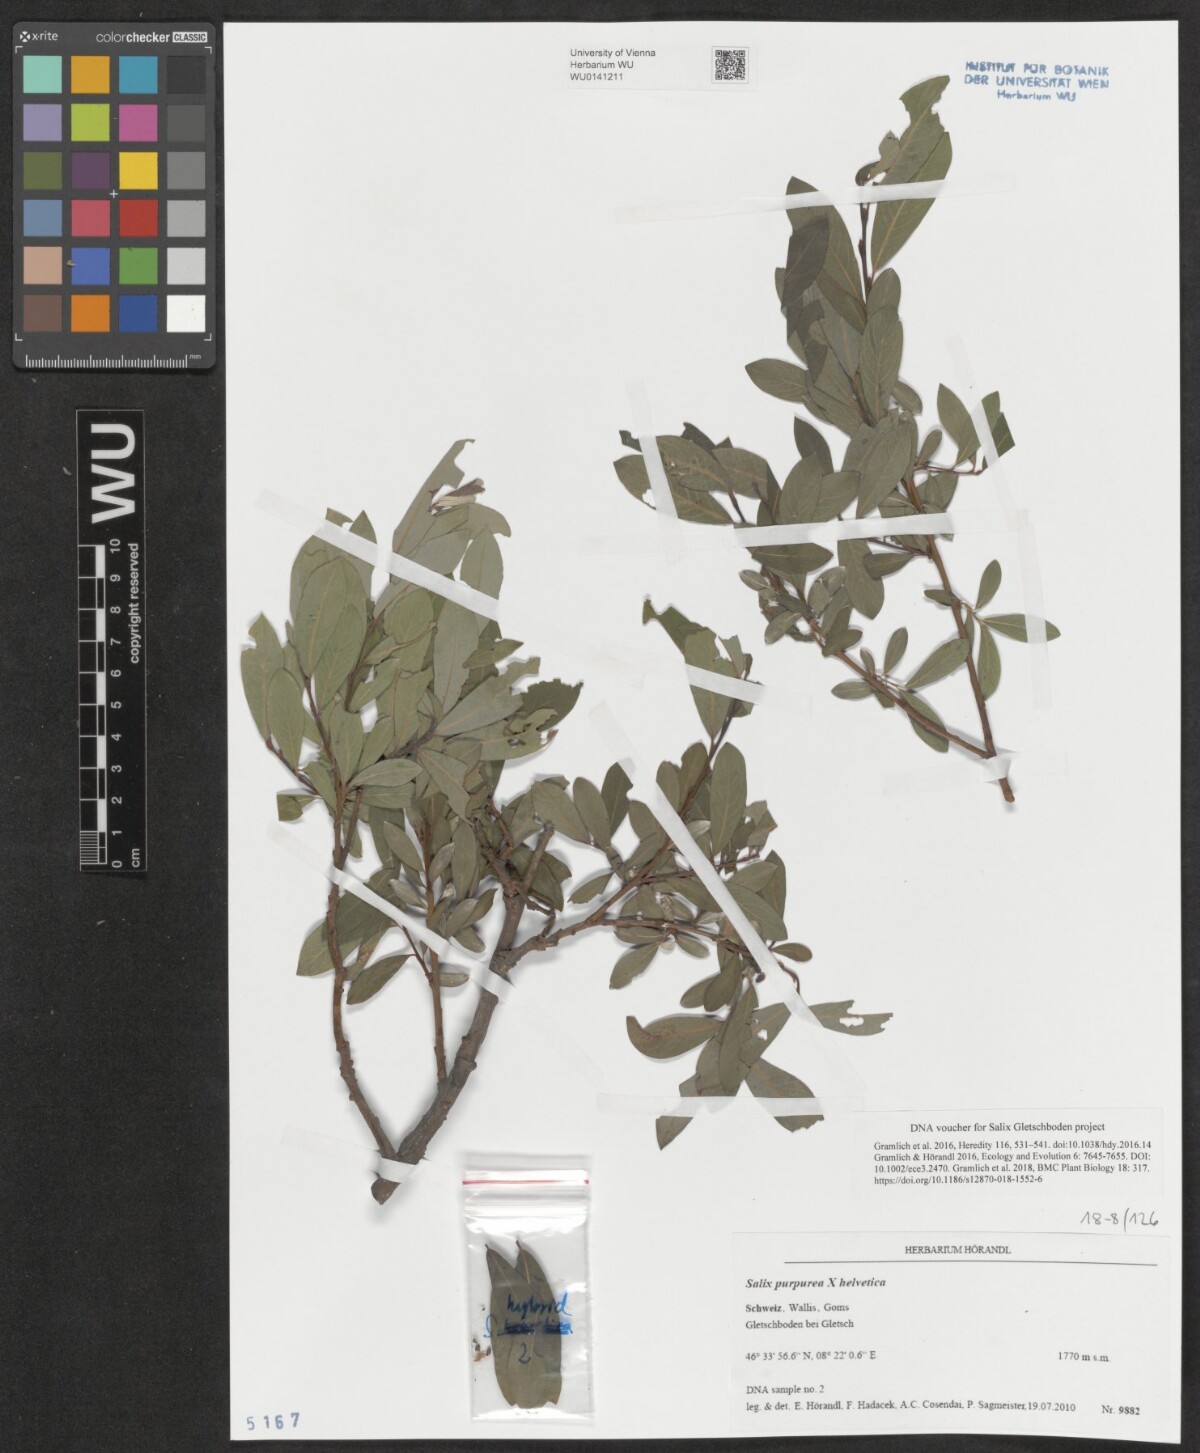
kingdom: Plantae
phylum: Tracheophyta
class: Magnoliopsida
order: Malpighiales
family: Salicaceae
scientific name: Salicaceae
